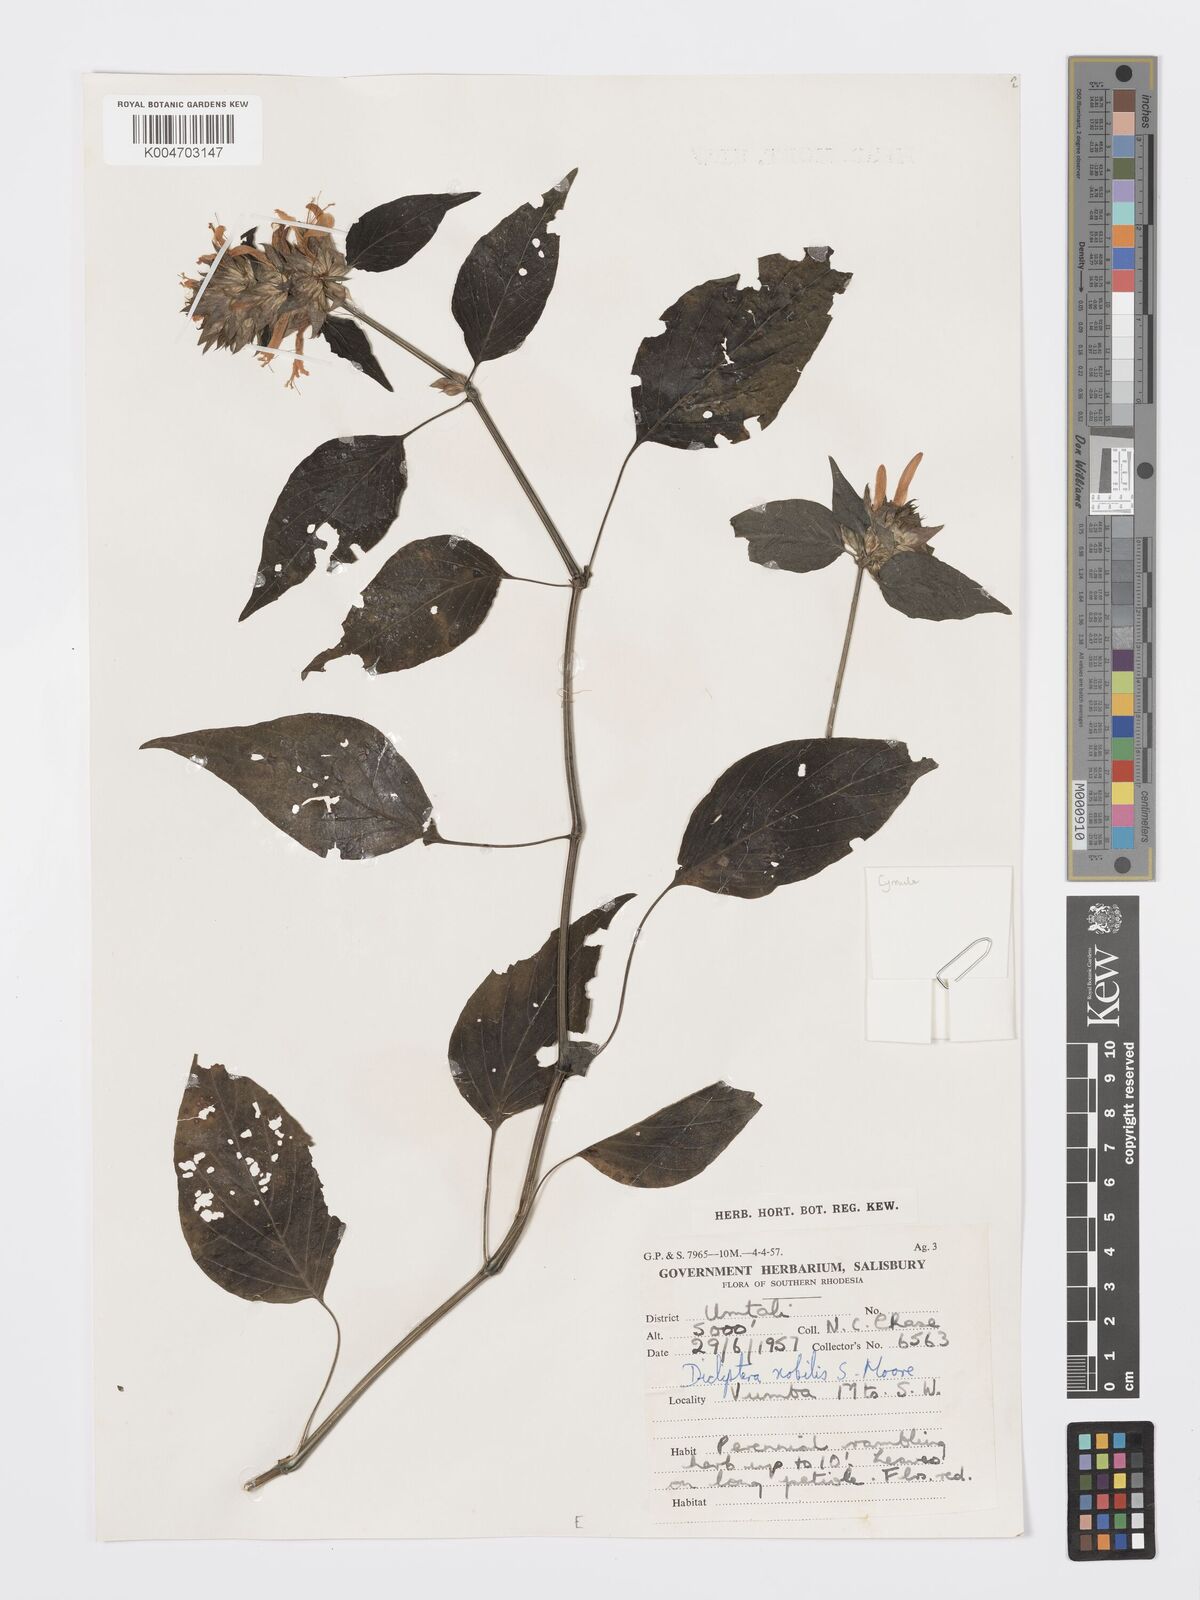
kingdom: Plantae
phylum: Tracheophyta
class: Magnoliopsida
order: Lamiales
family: Acanthaceae
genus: Dicliptera
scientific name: Dicliptera clinopodia
